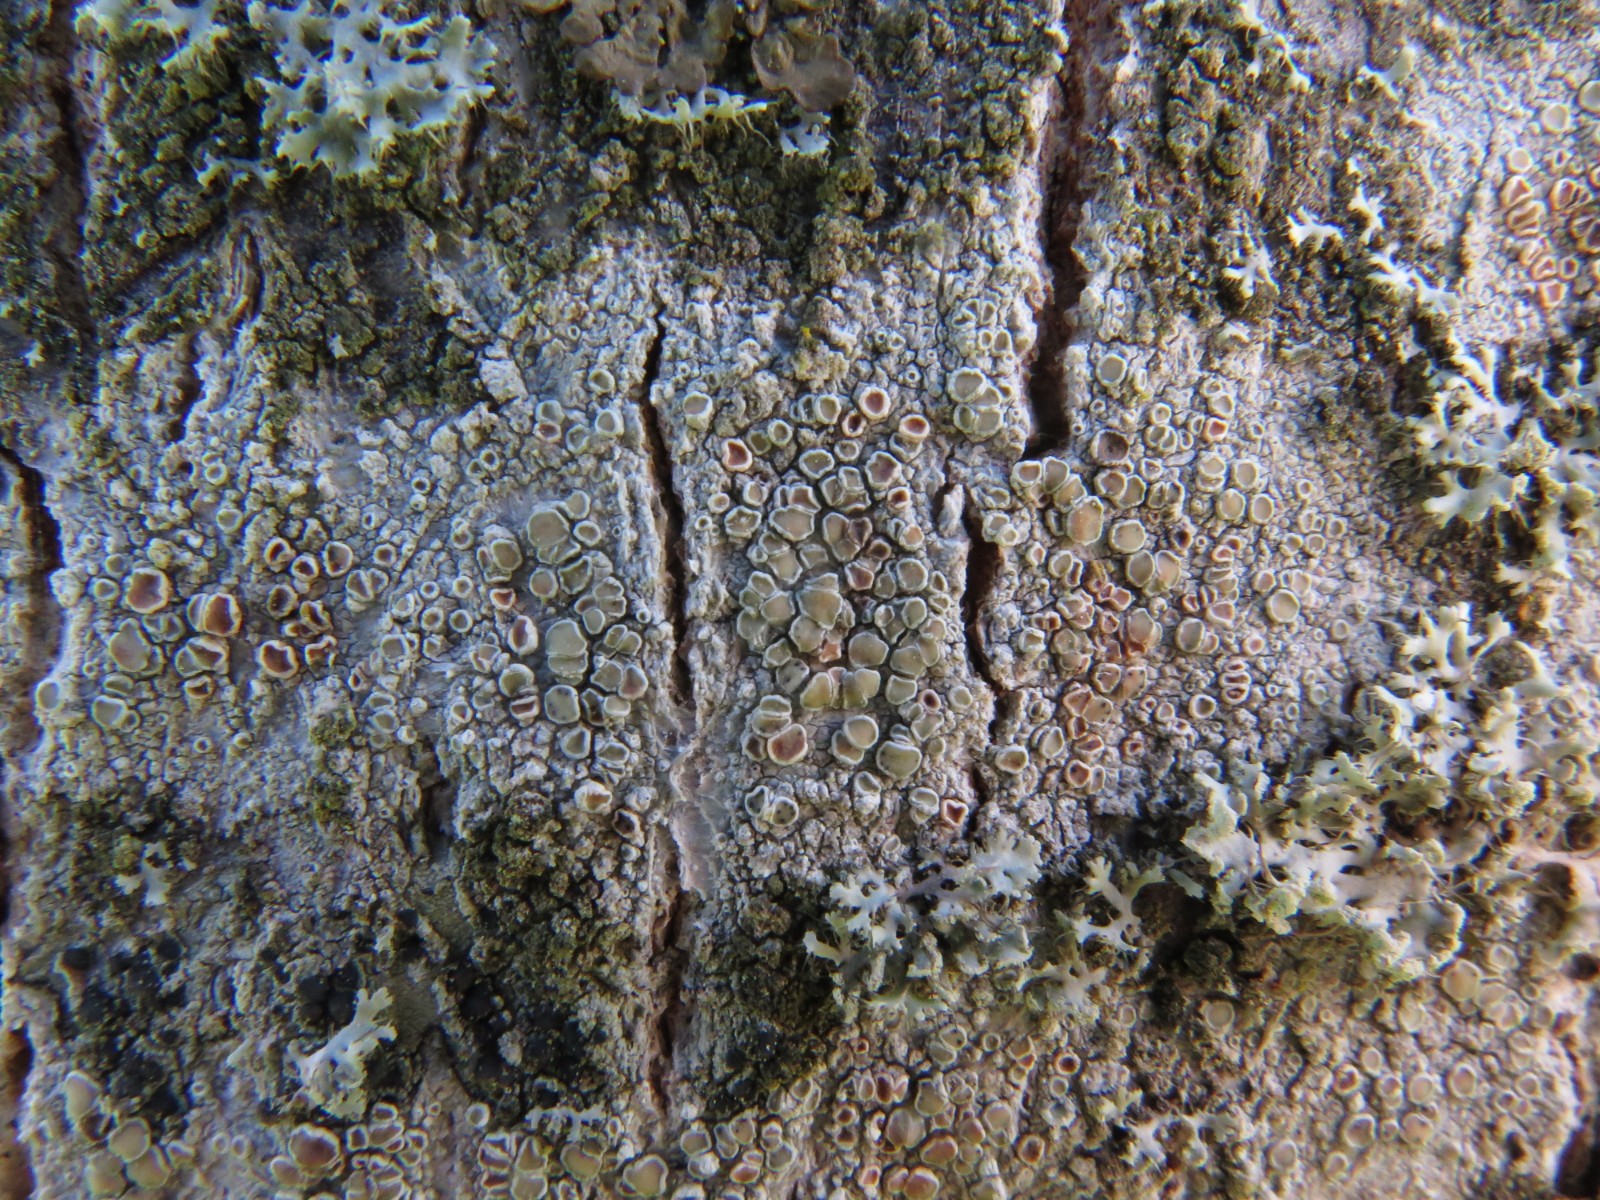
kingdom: Fungi
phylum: Ascomycota
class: Lecanoromycetes
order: Lecanorales
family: Lecanoraceae
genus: Lecanora
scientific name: Lecanora chlarotera
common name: brun kantskivelav
